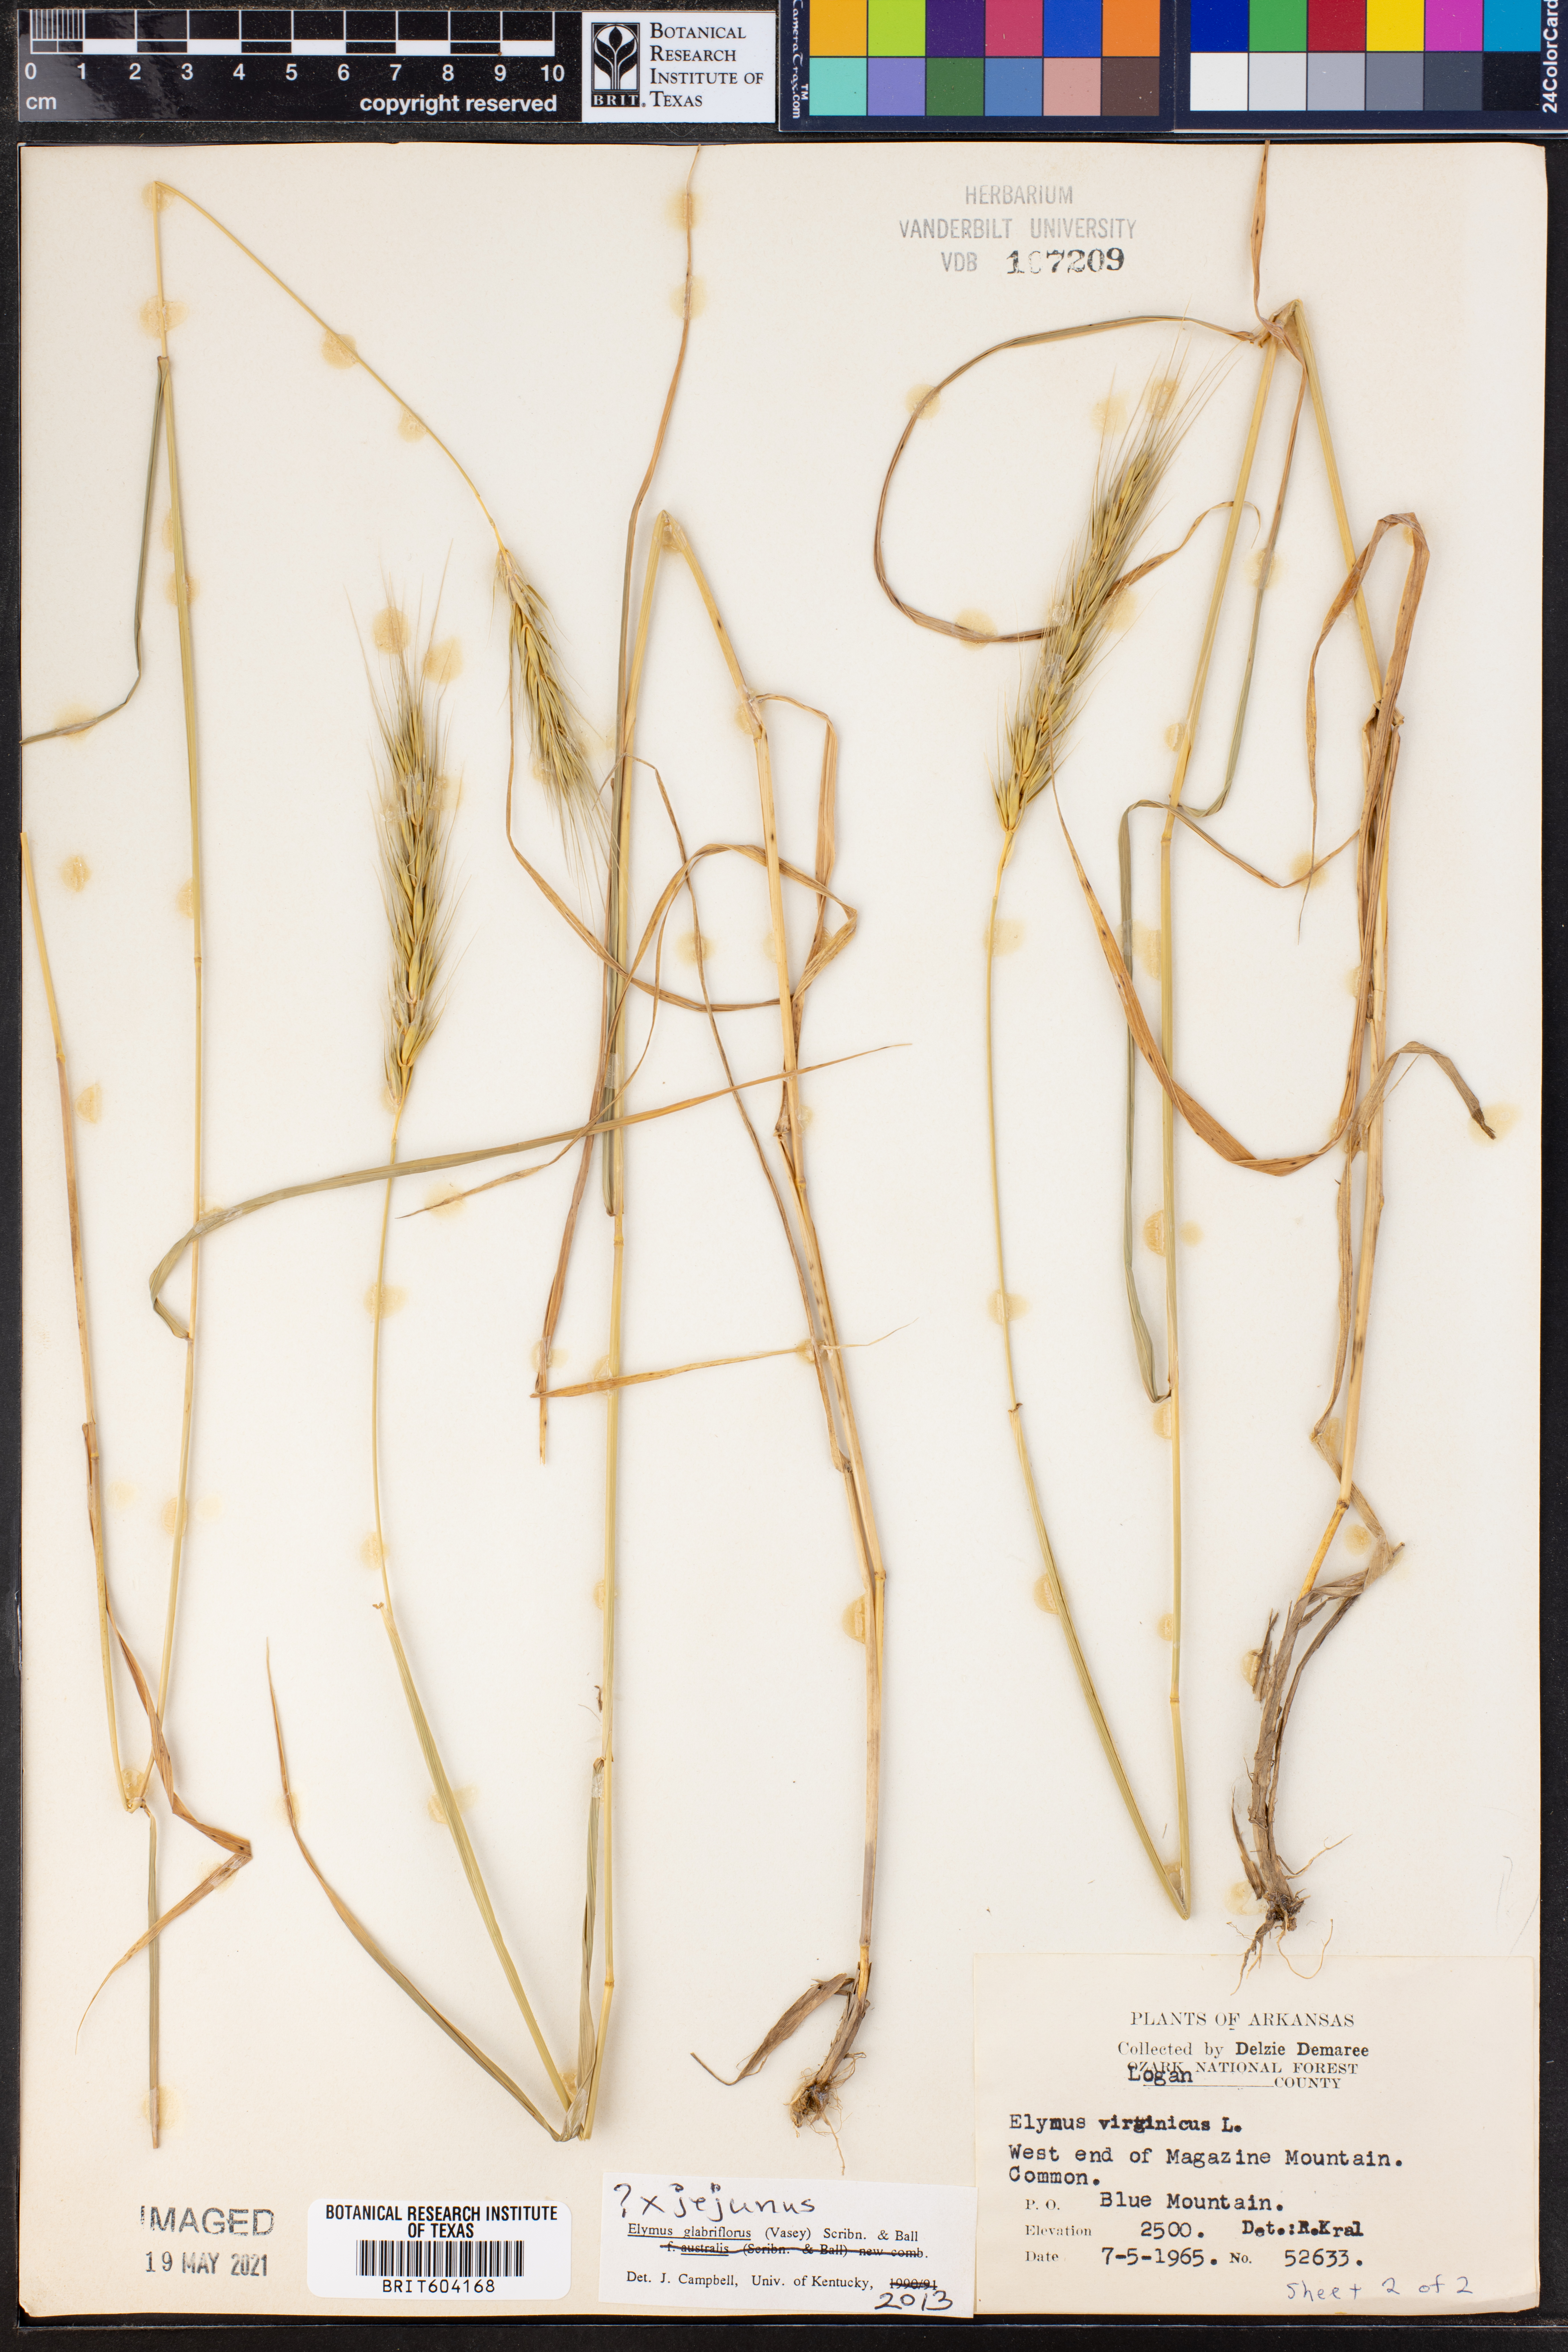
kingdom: Plantae
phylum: Tracheophyta
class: Liliopsida
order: Poales
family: Poaceae
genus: Elymus
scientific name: Elymus virginicus
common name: Common eastern wildrye
